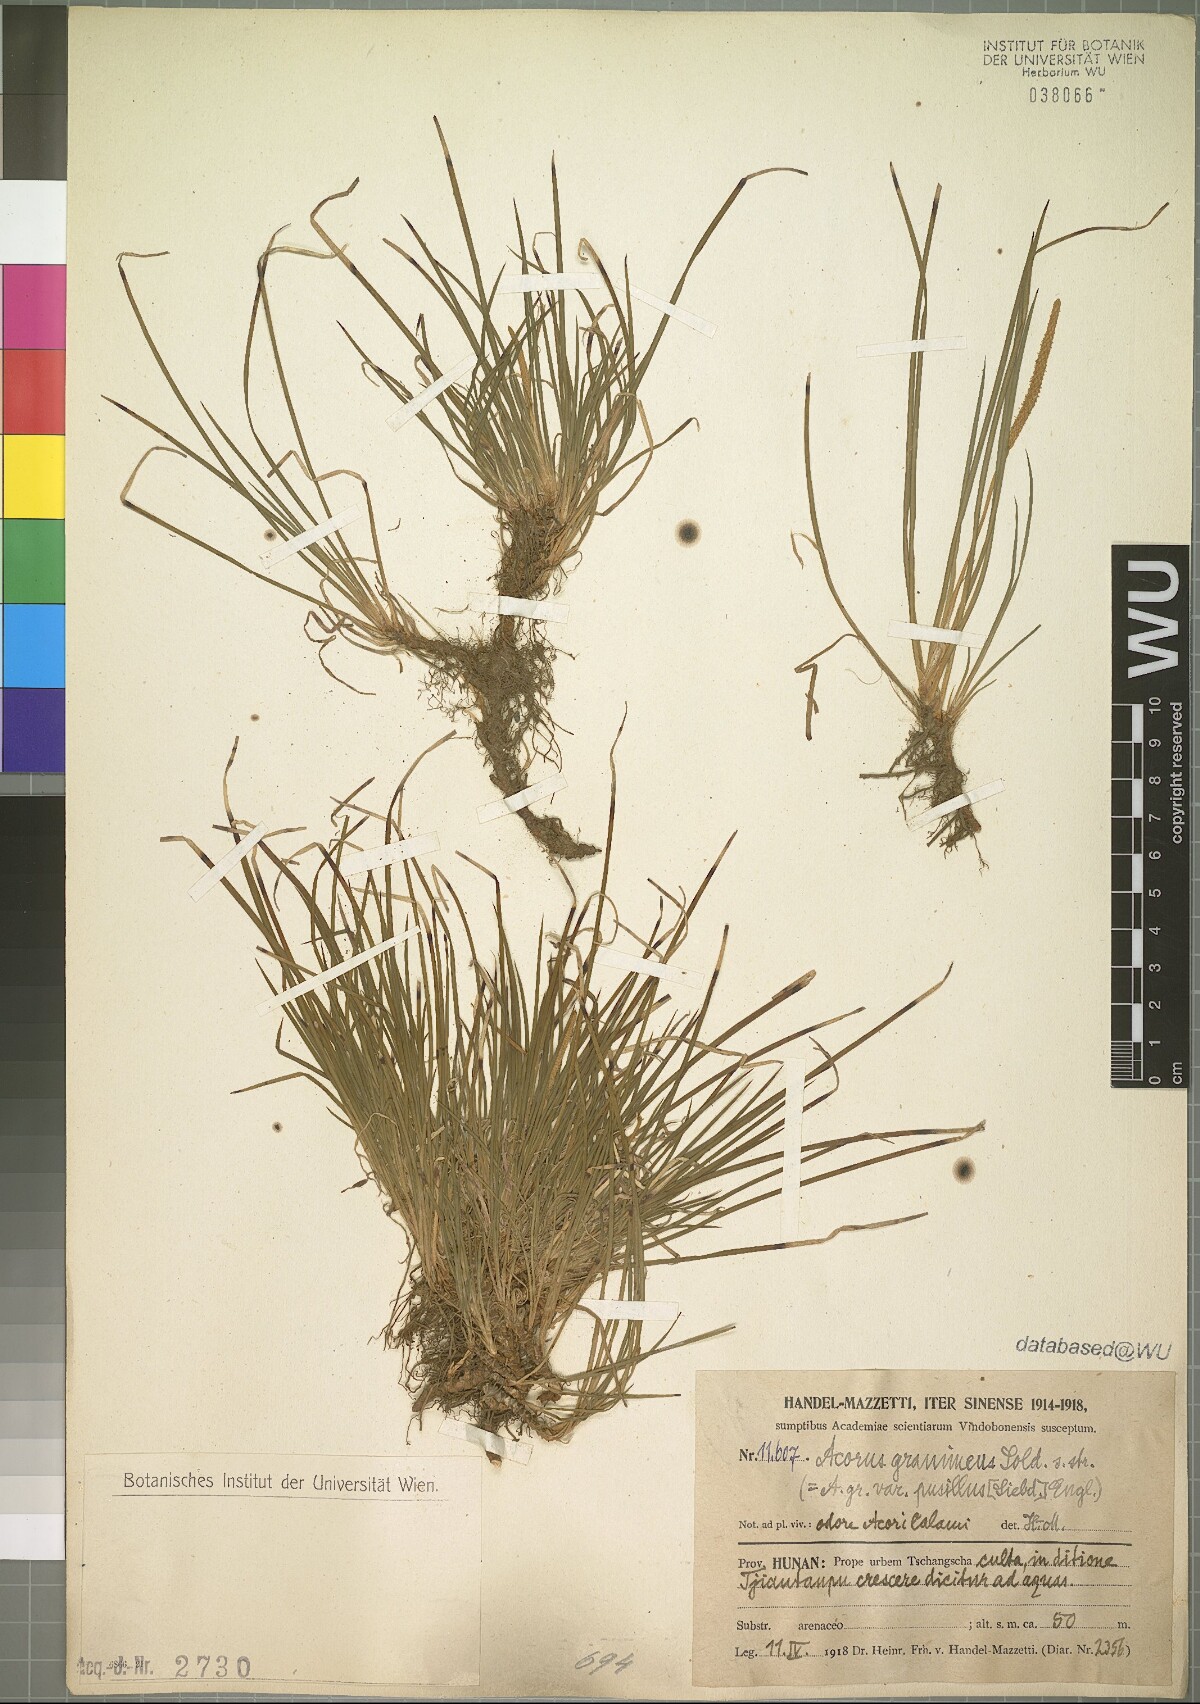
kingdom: Plantae
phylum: Tracheophyta
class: Liliopsida
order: Acorales
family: Acoraceae
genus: Acorus
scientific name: Acorus gramineus
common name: Slender sweet-flag
